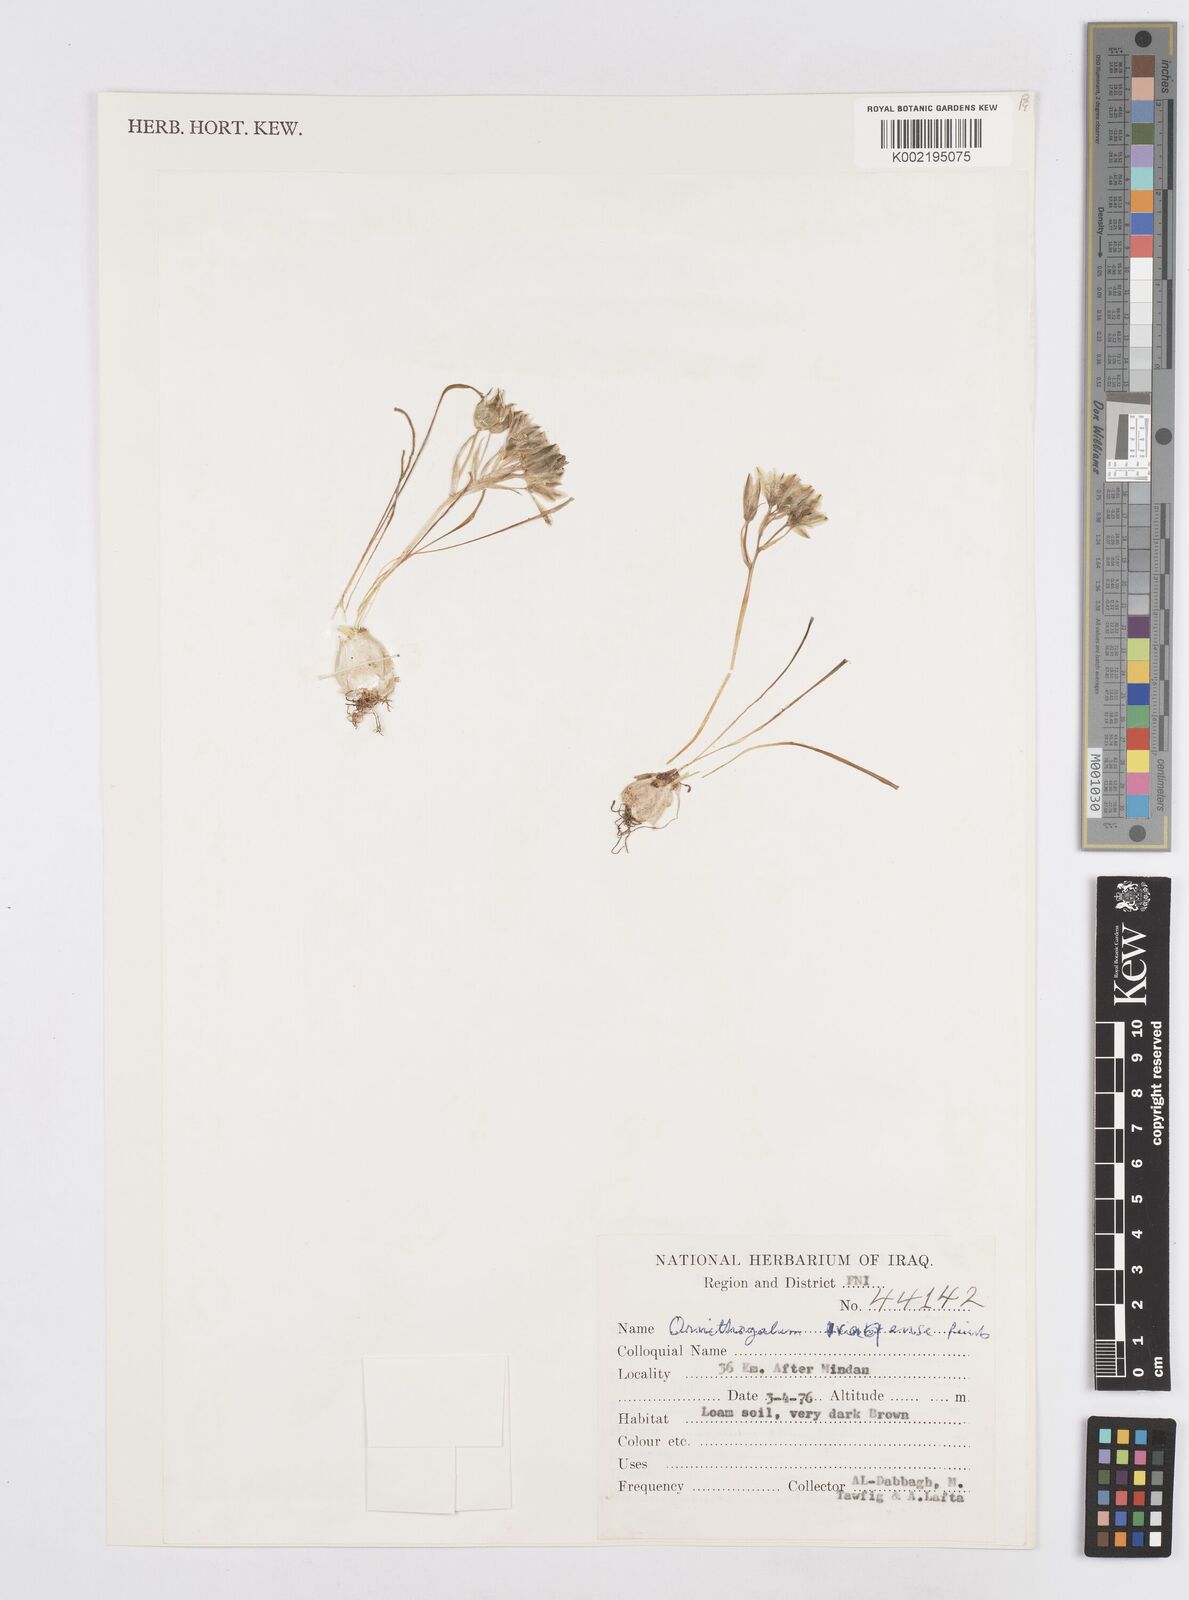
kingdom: Plantae
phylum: Tracheophyta
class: Liliopsida
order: Asparagales
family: Asparagaceae
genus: Ornithogalum
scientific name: Ornithogalum iraqense
